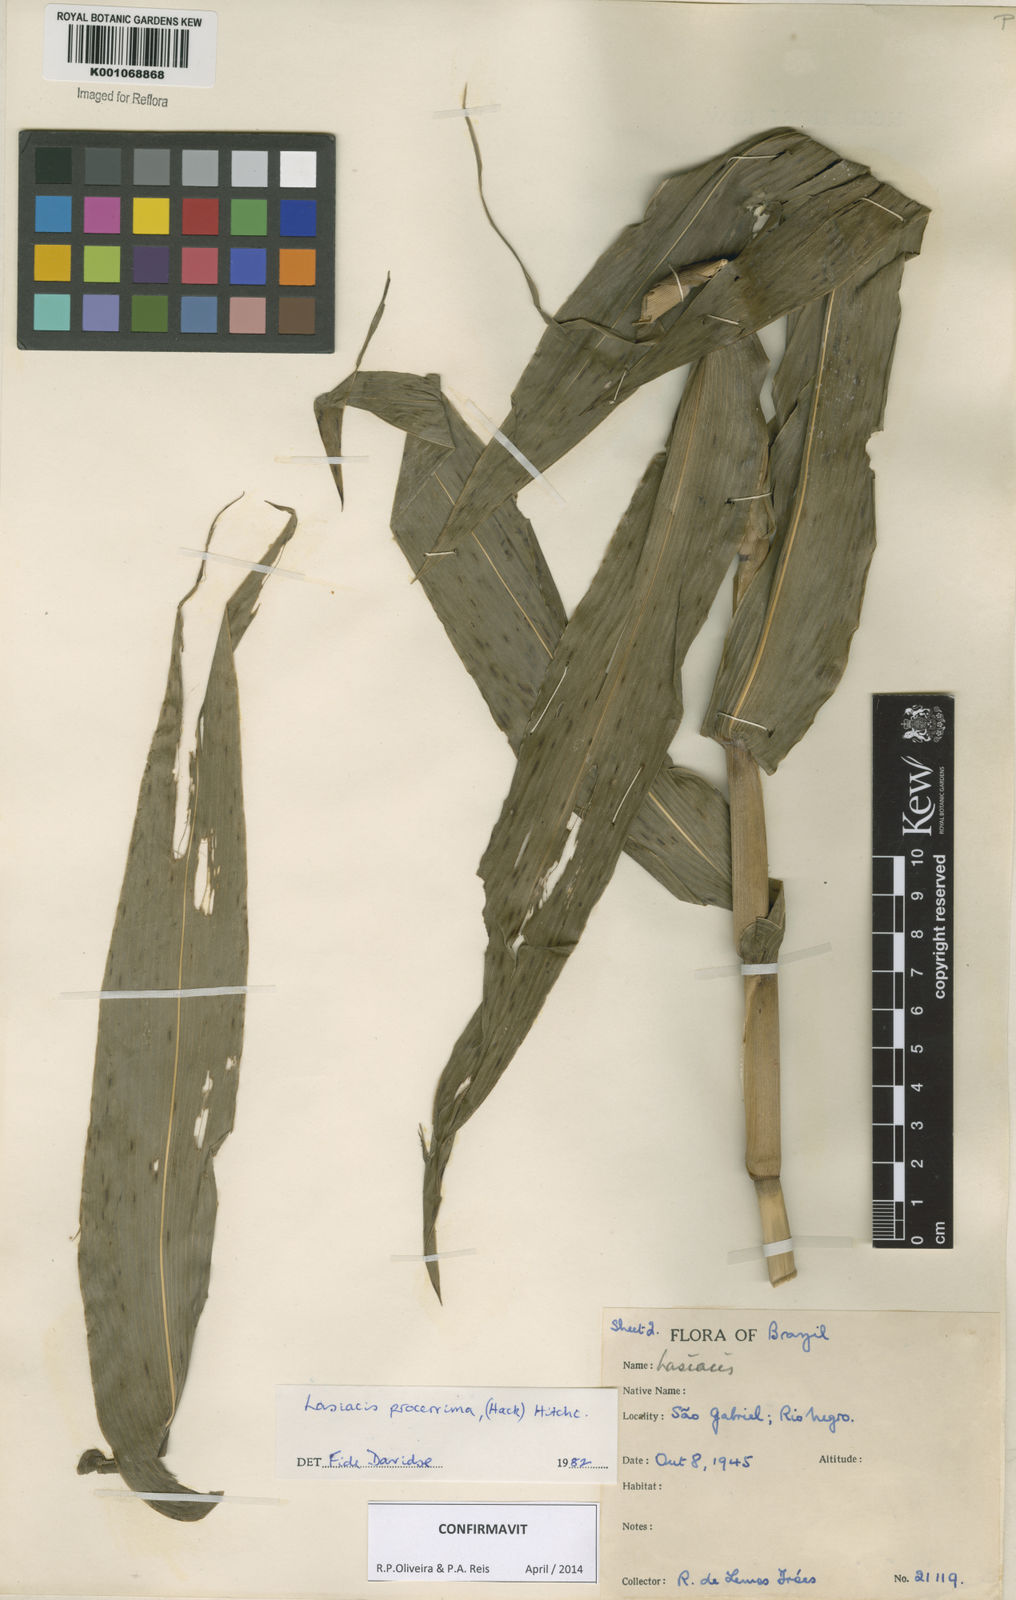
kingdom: Plantae
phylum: Tracheophyta
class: Liliopsida
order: Poales
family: Poaceae
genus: Lasiacis
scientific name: Lasiacis
